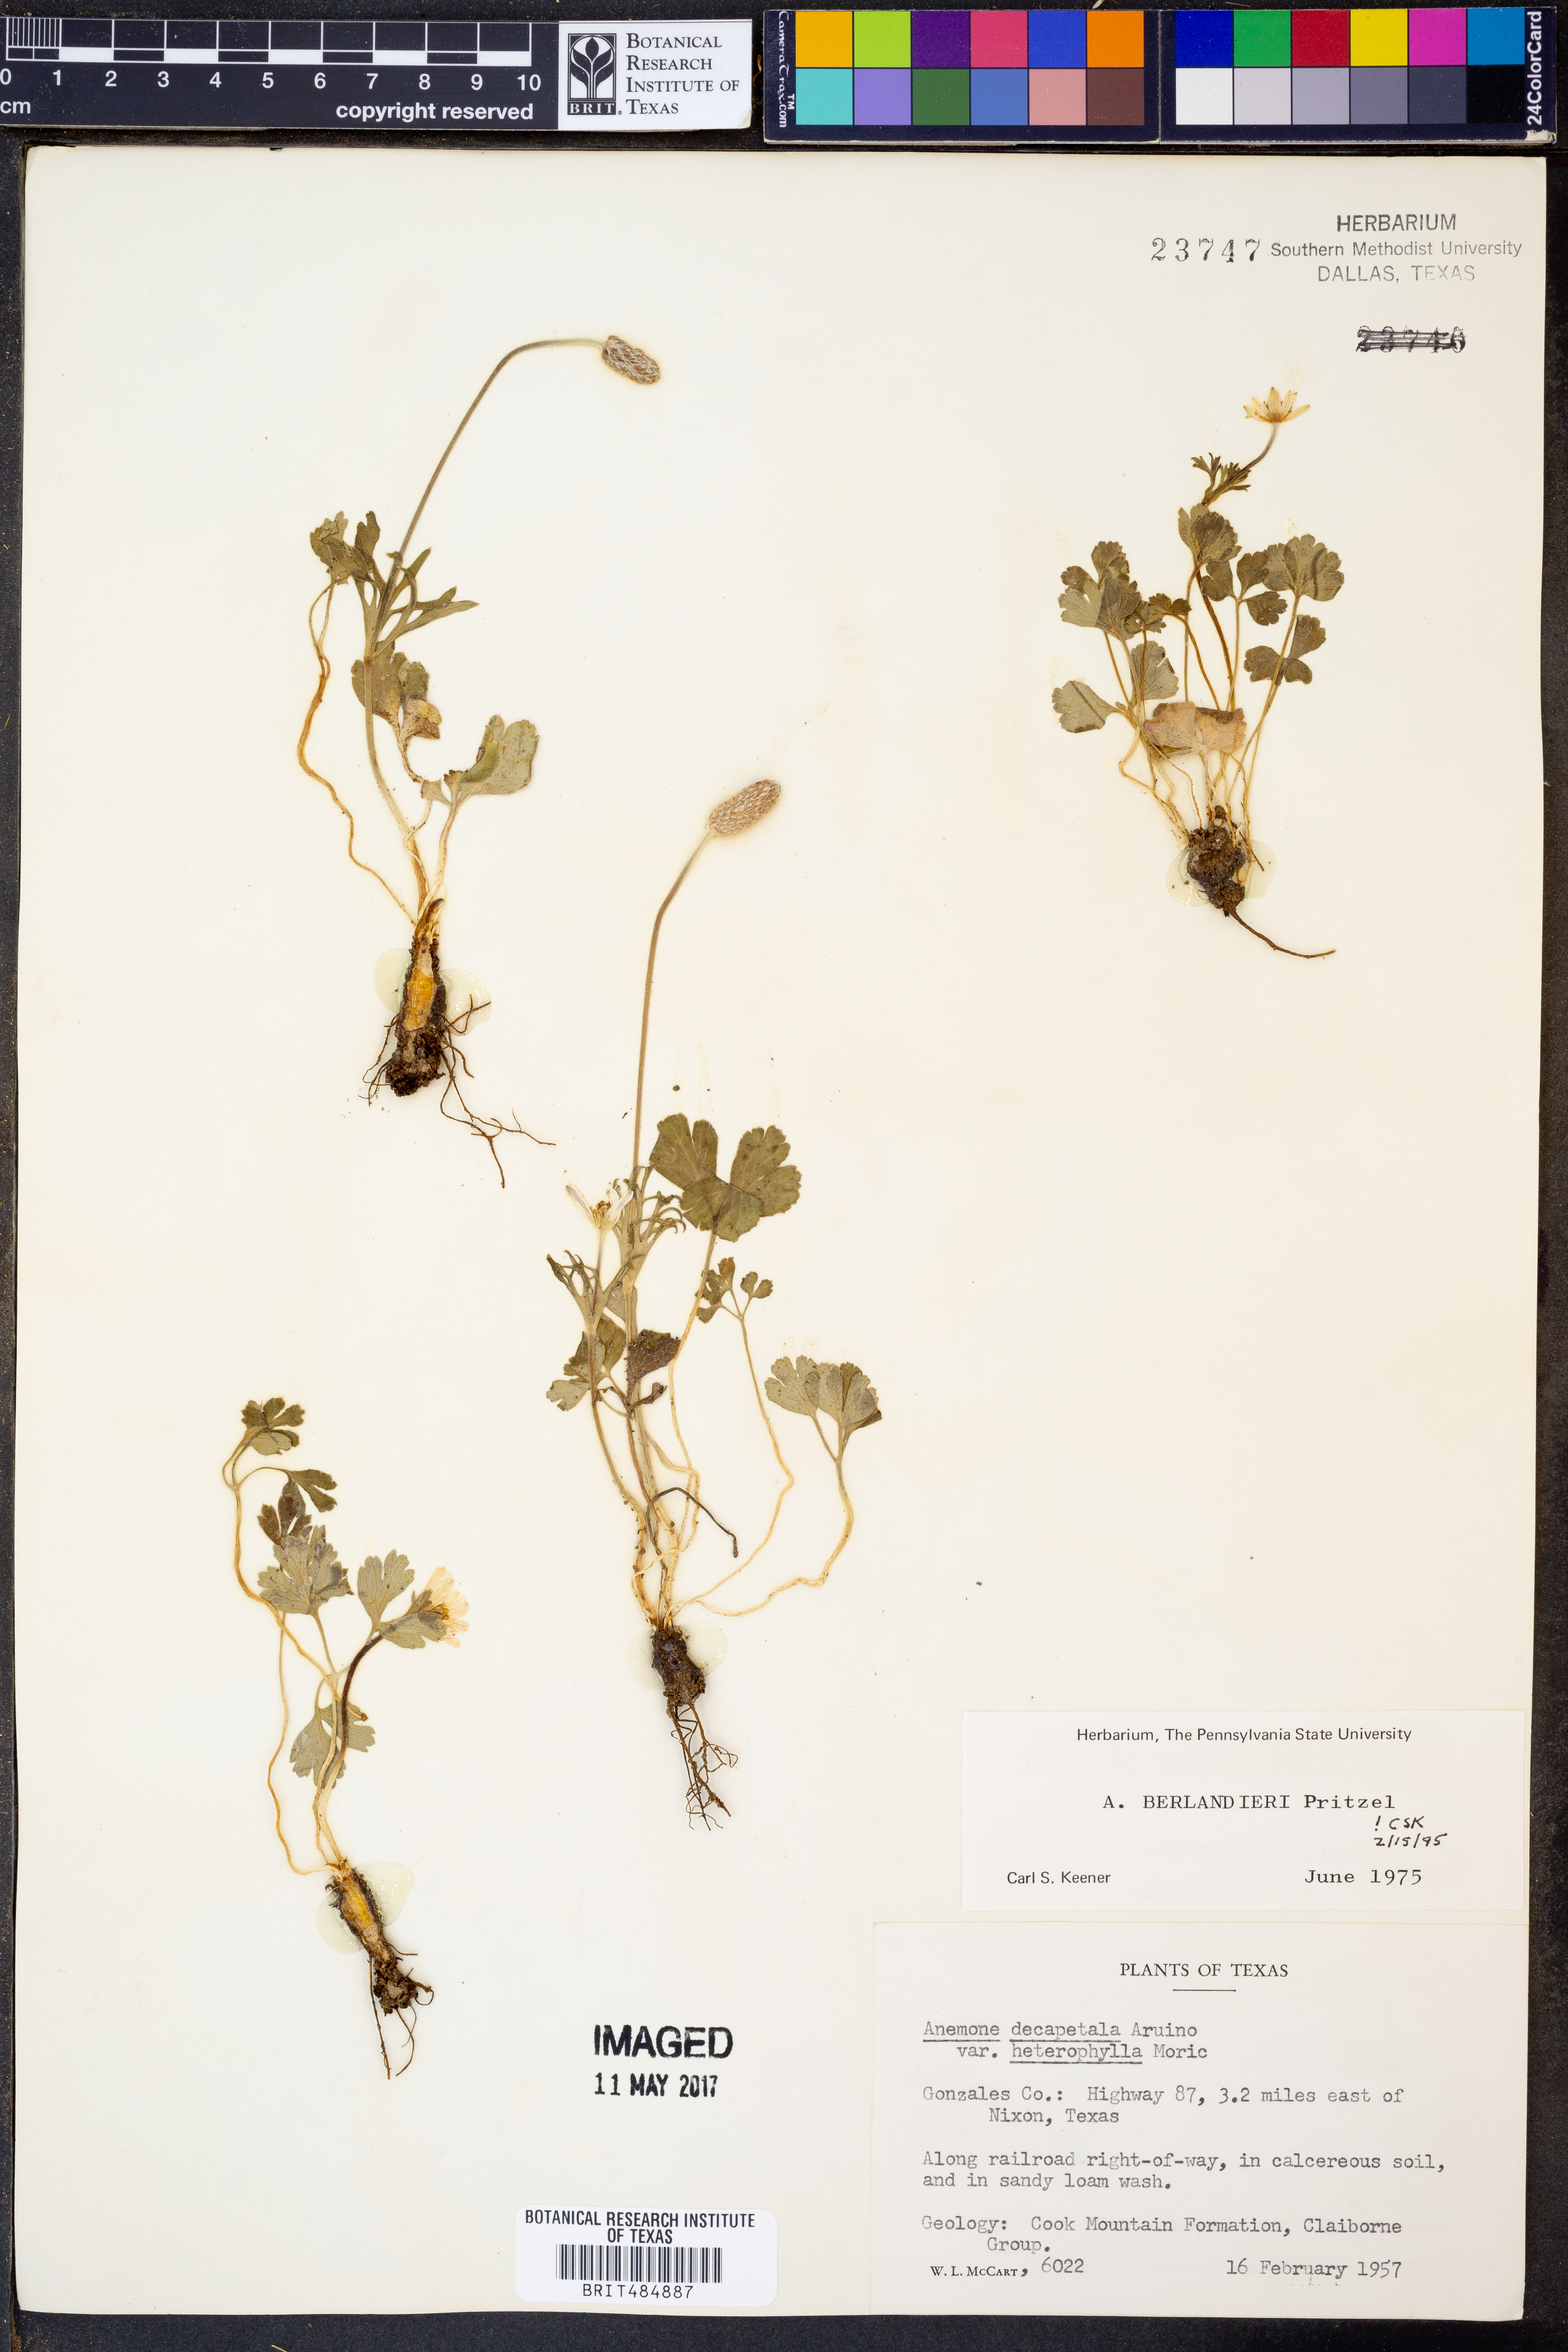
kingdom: Plantae
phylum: Tracheophyta
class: Magnoliopsida
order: Ranunculales
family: Ranunculaceae
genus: Anemone
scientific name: Anemone berlandieri
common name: Ten-petal anemone
